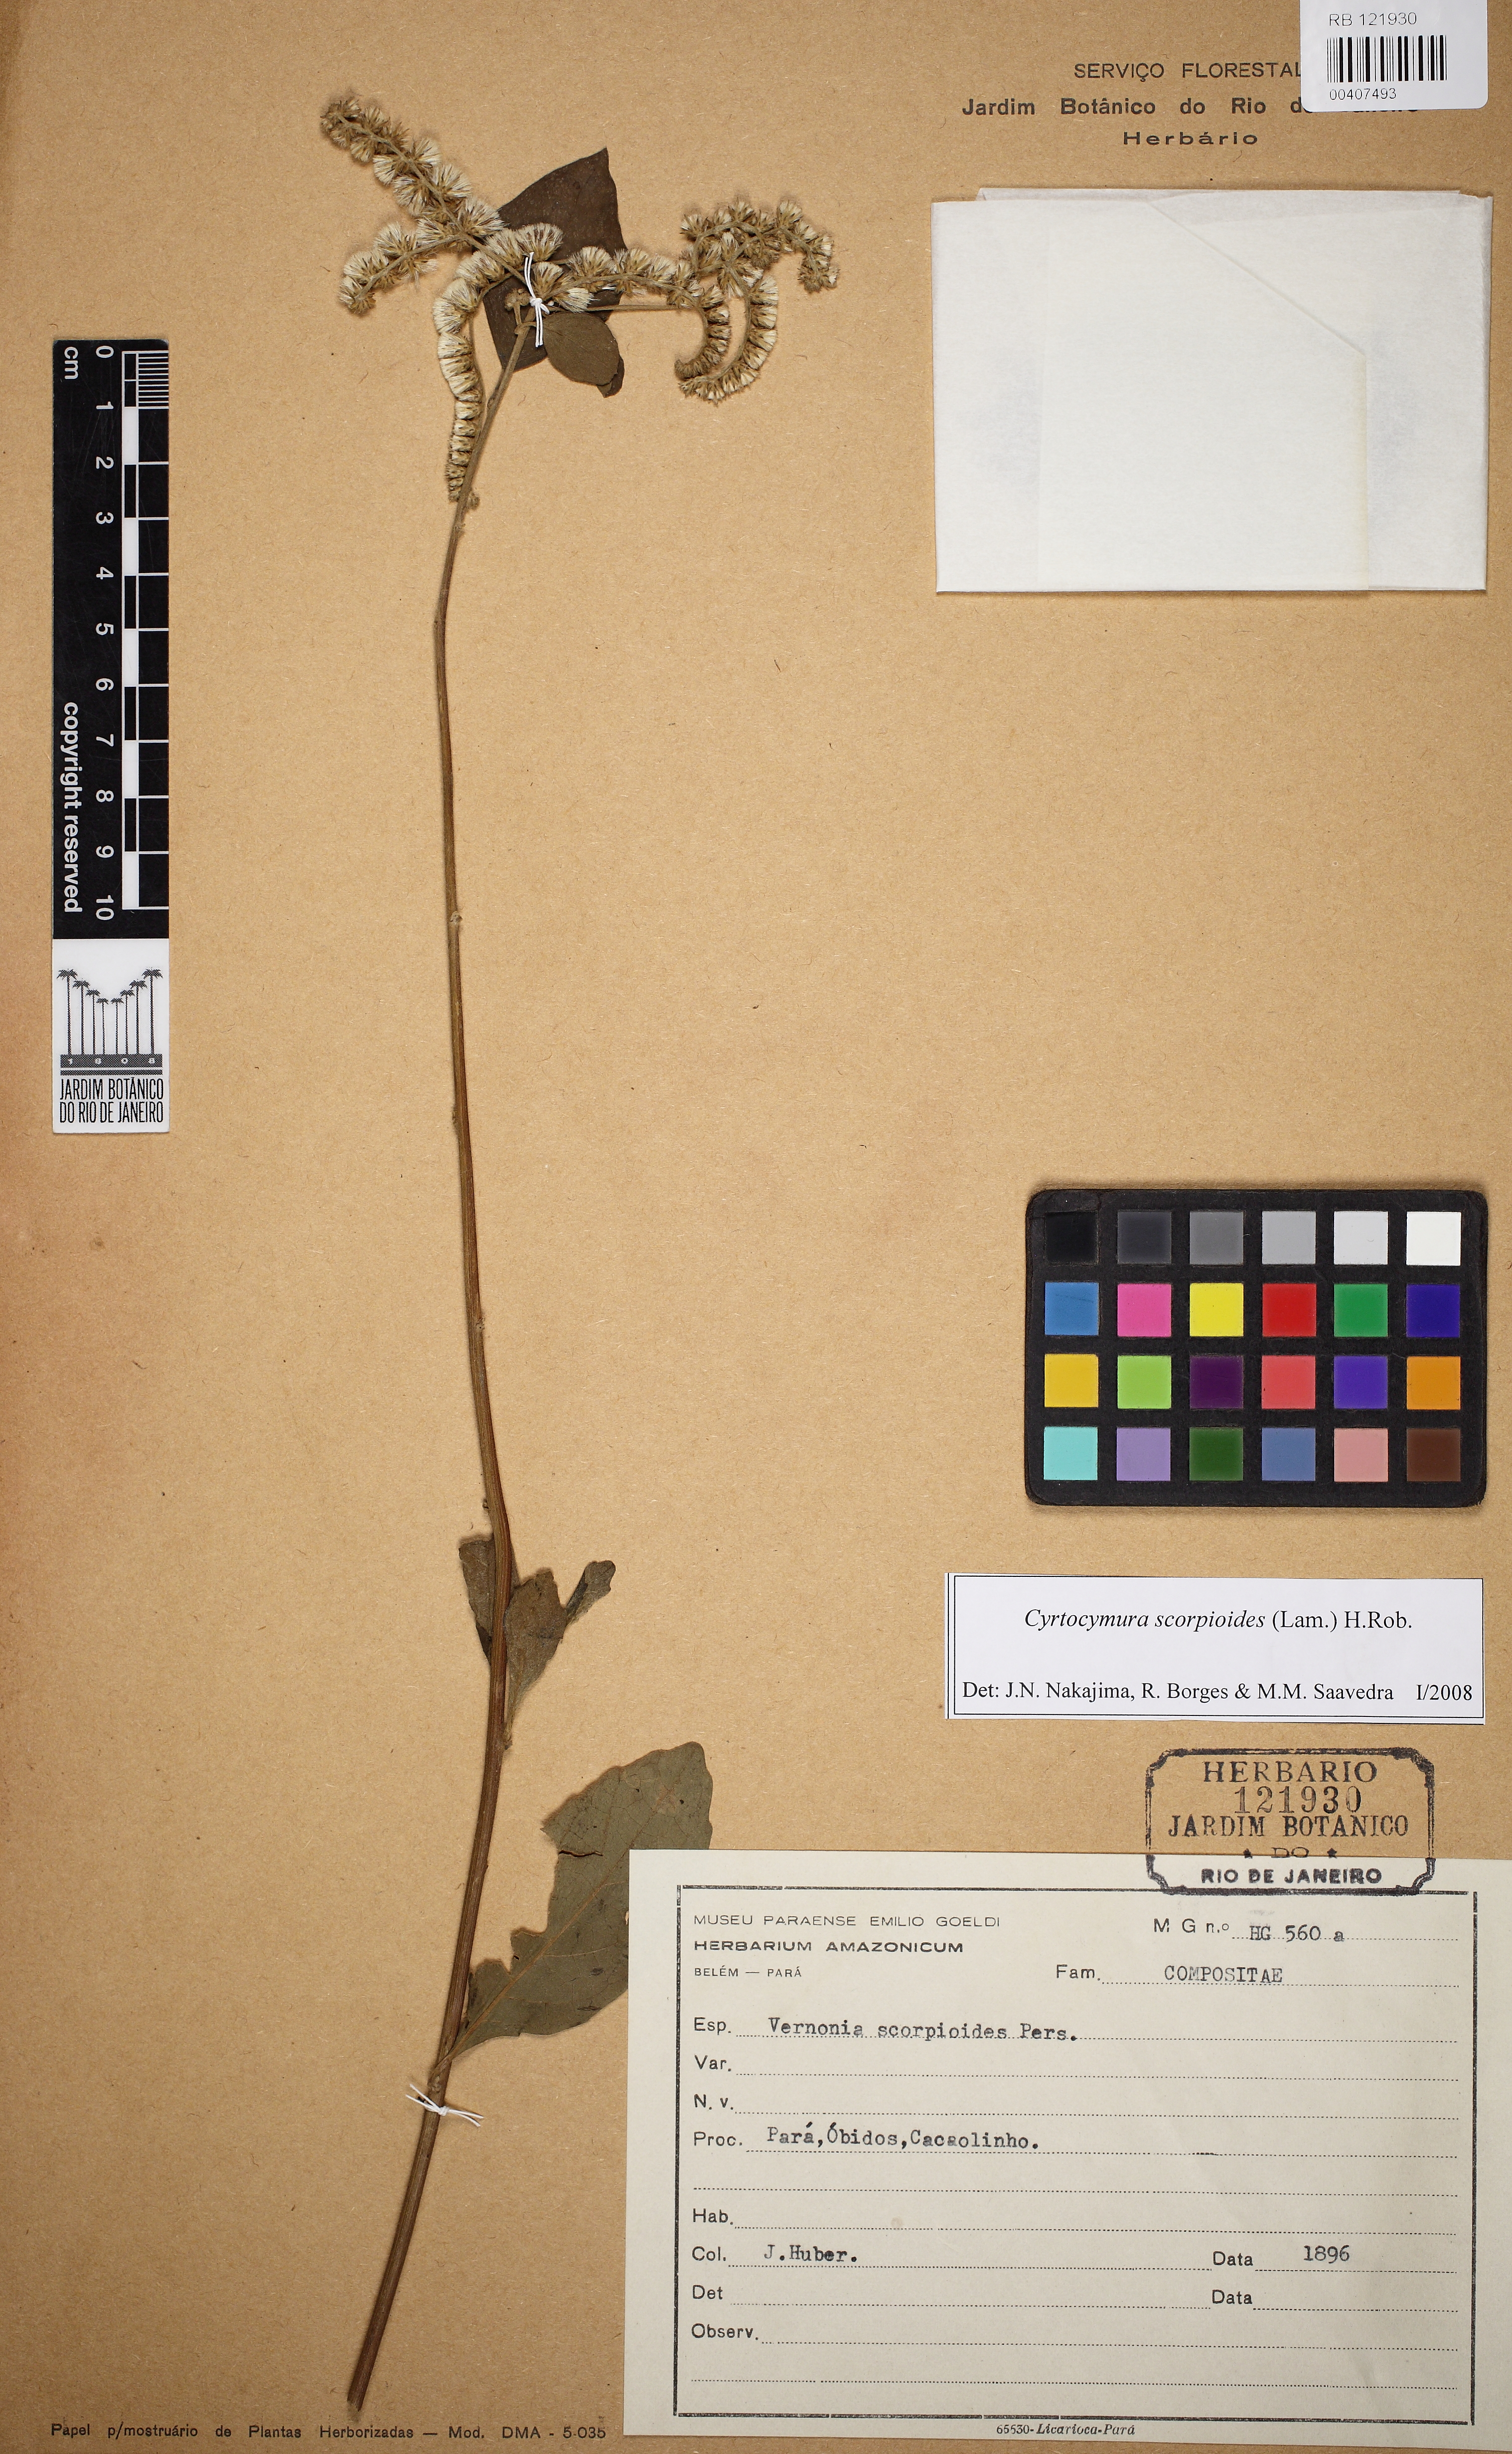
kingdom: Plantae
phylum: Tracheophyta
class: Magnoliopsida
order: Asterales
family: Asteraceae
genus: Cyrtocymura
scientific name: Cyrtocymura scorpioides
